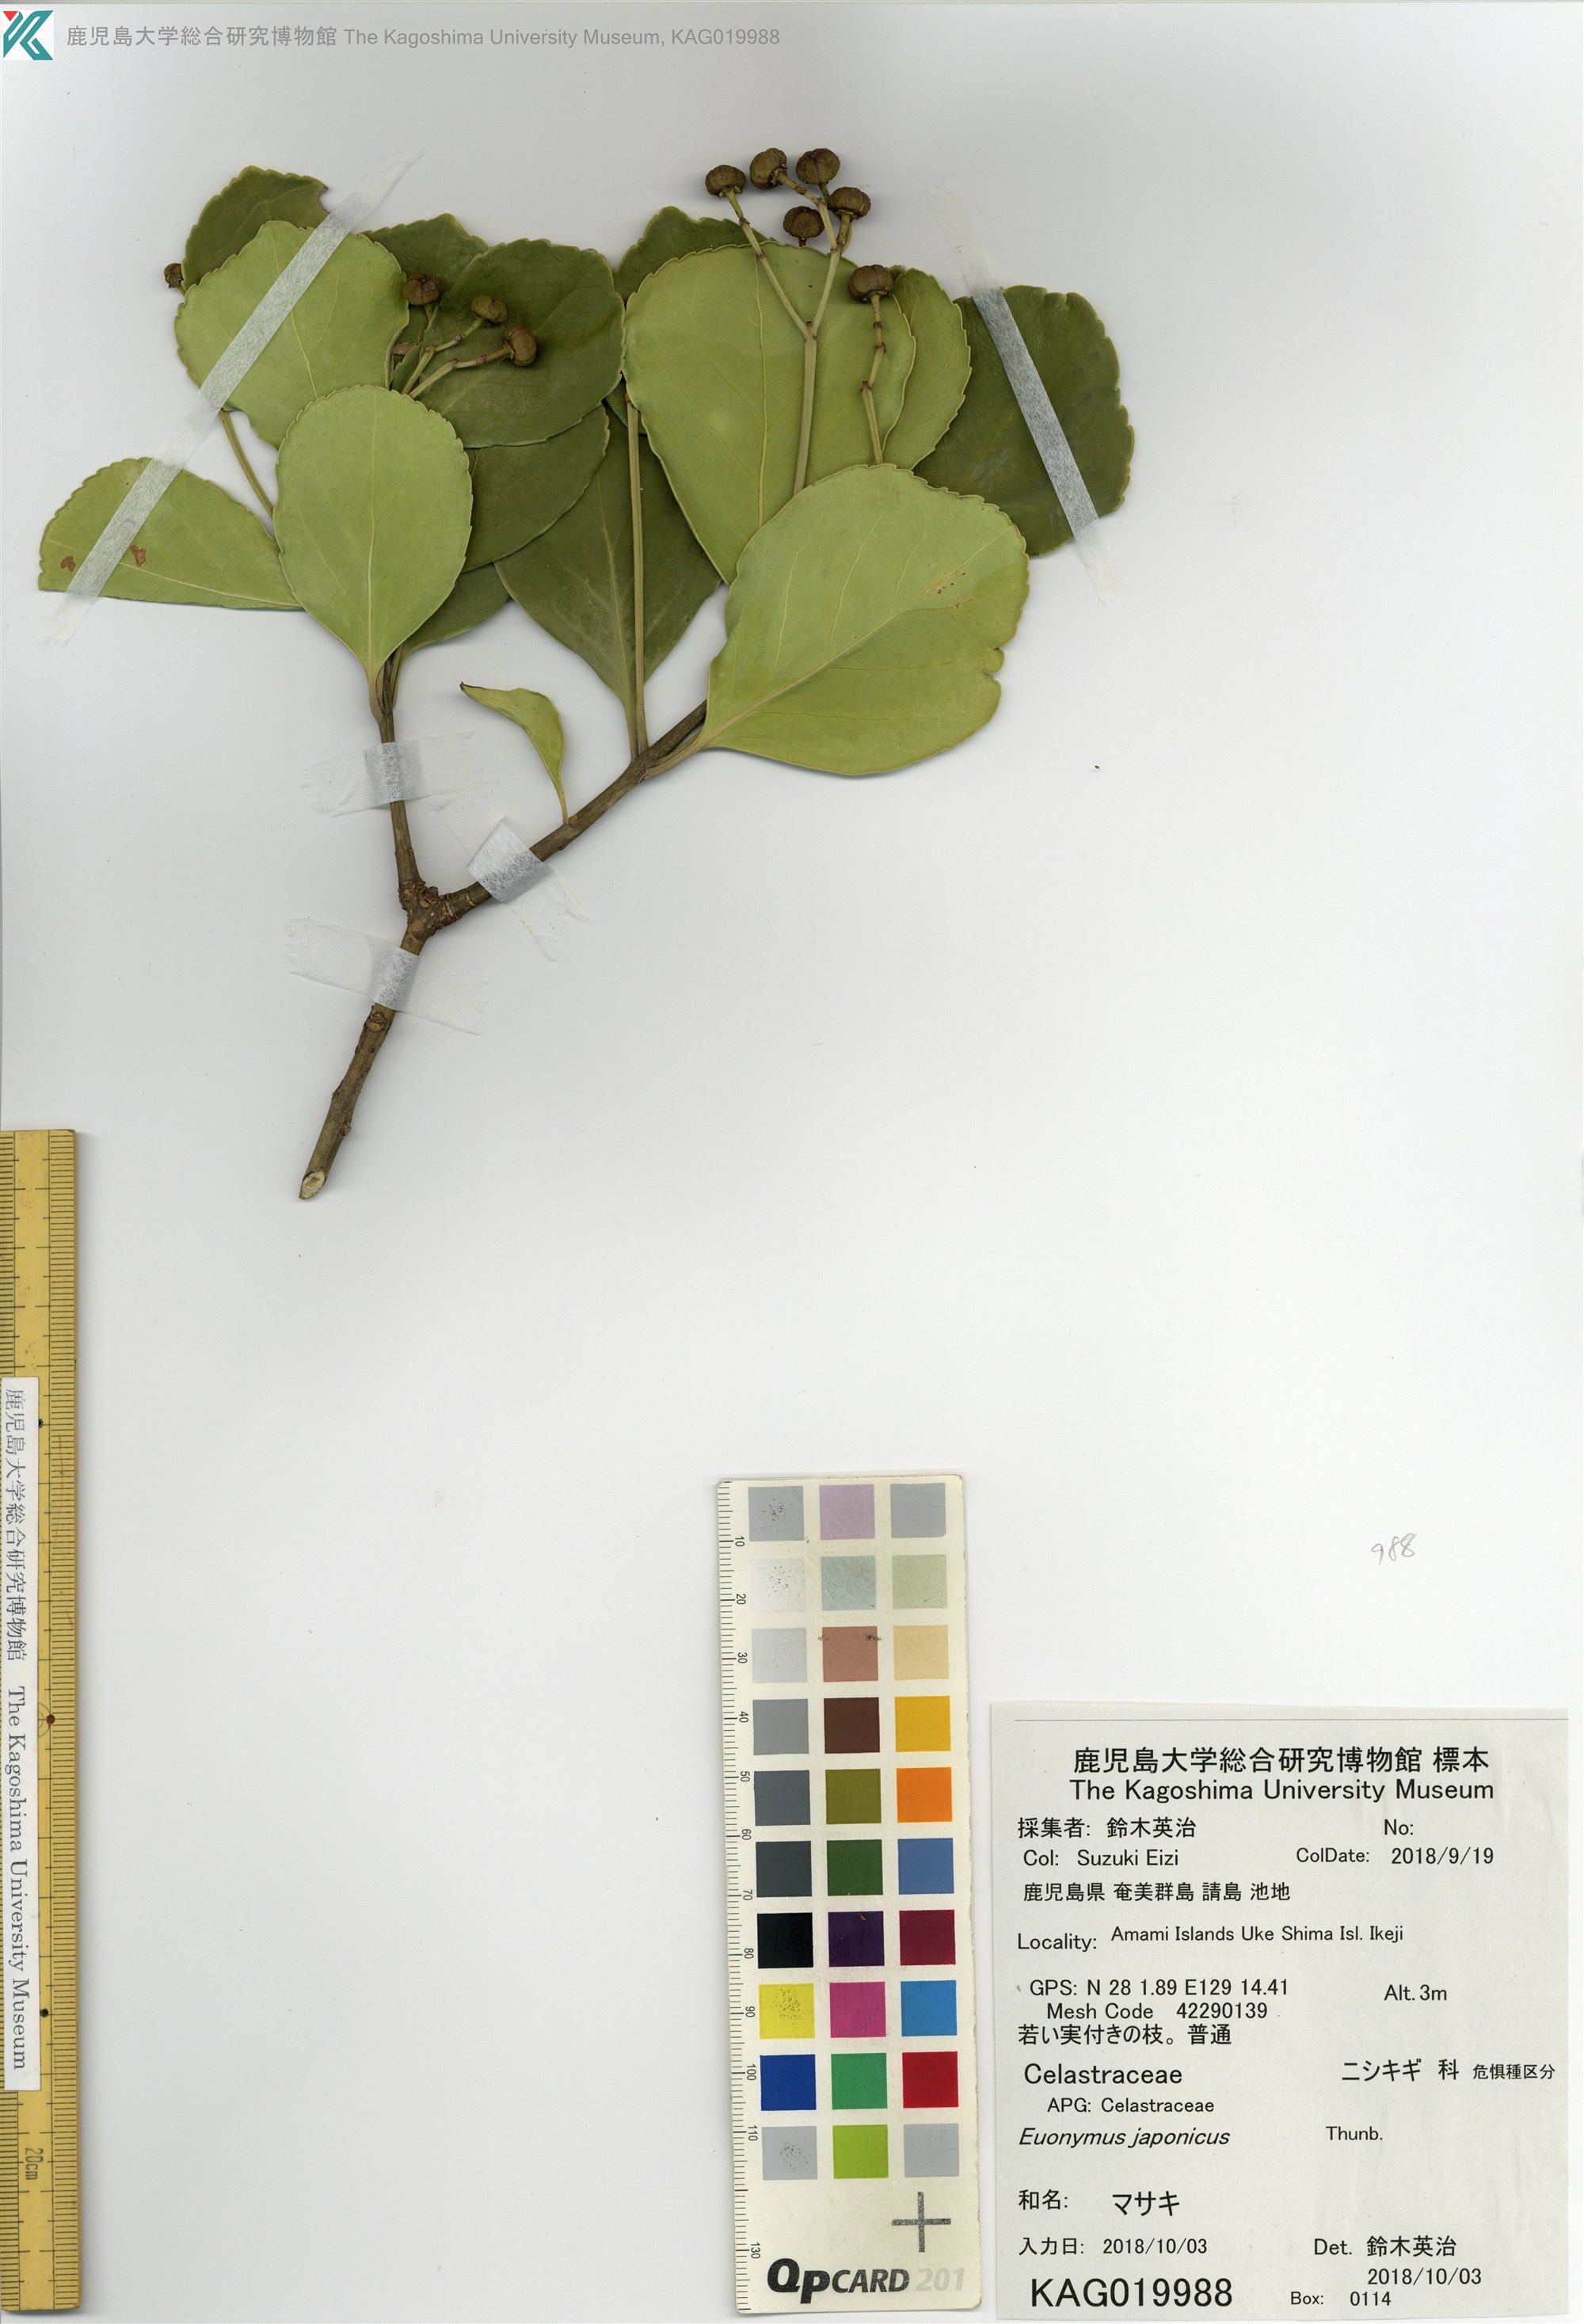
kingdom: Plantae
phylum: Tracheophyta
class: Magnoliopsida
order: Celastrales
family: Celastraceae
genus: Euonymus
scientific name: Euonymus japonicus
